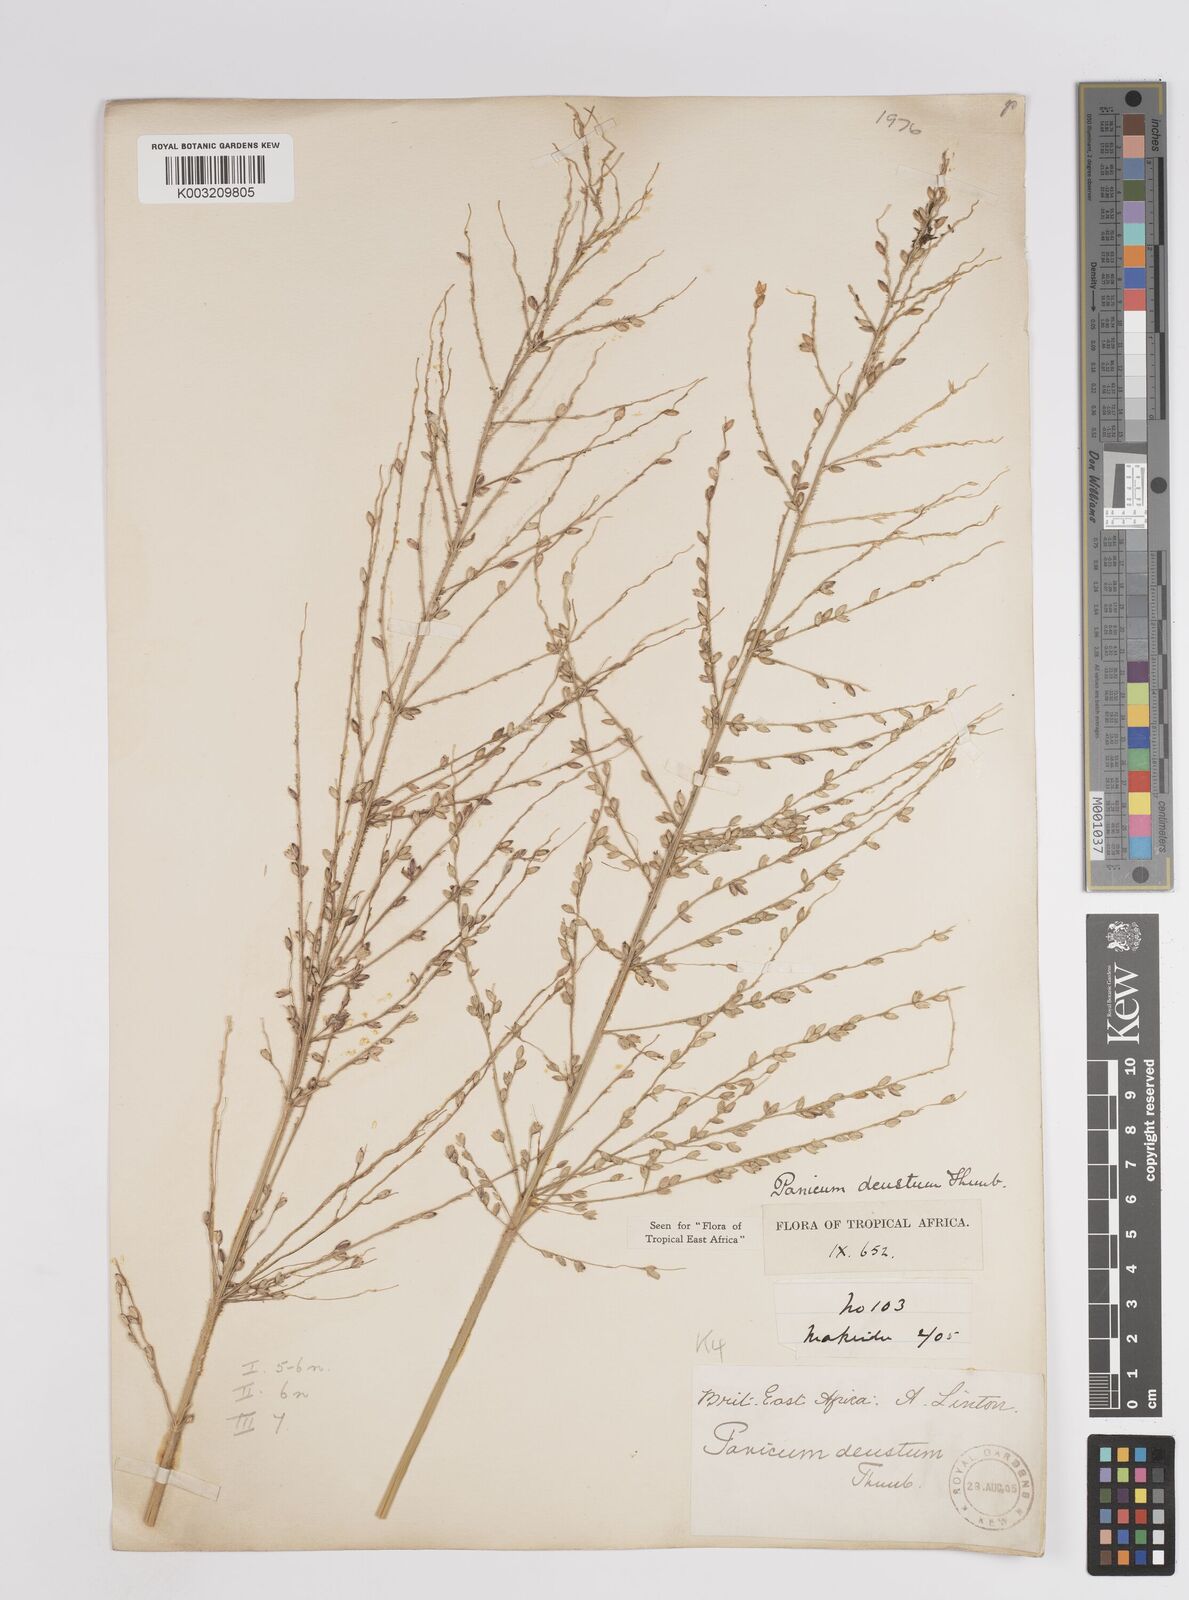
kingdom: Plantae
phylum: Tracheophyta
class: Liliopsida
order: Poales
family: Poaceae
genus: Panicum
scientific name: Panicum deustum
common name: Reed panicum
